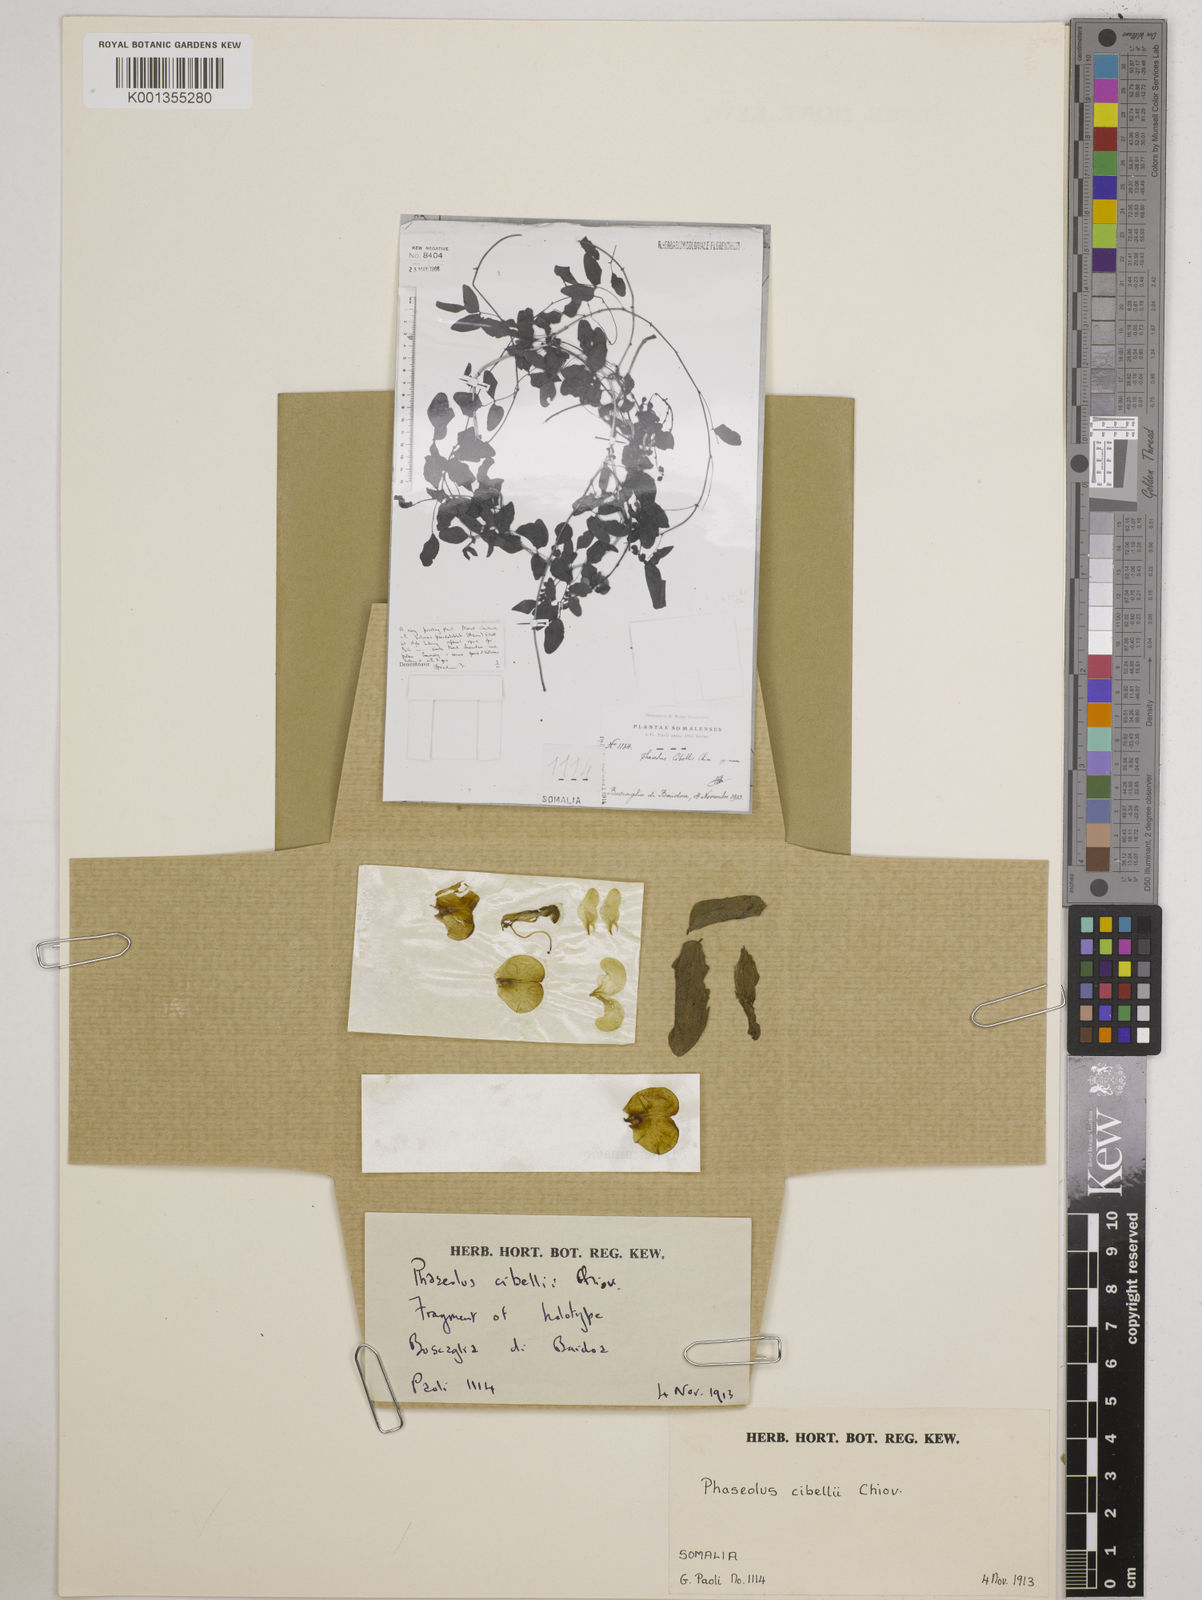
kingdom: Plantae
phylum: Tracheophyta
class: Magnoliopsida
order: Fabales
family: Fabaceae
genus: Vatovaea
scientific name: Vatovaea pseudolablab
